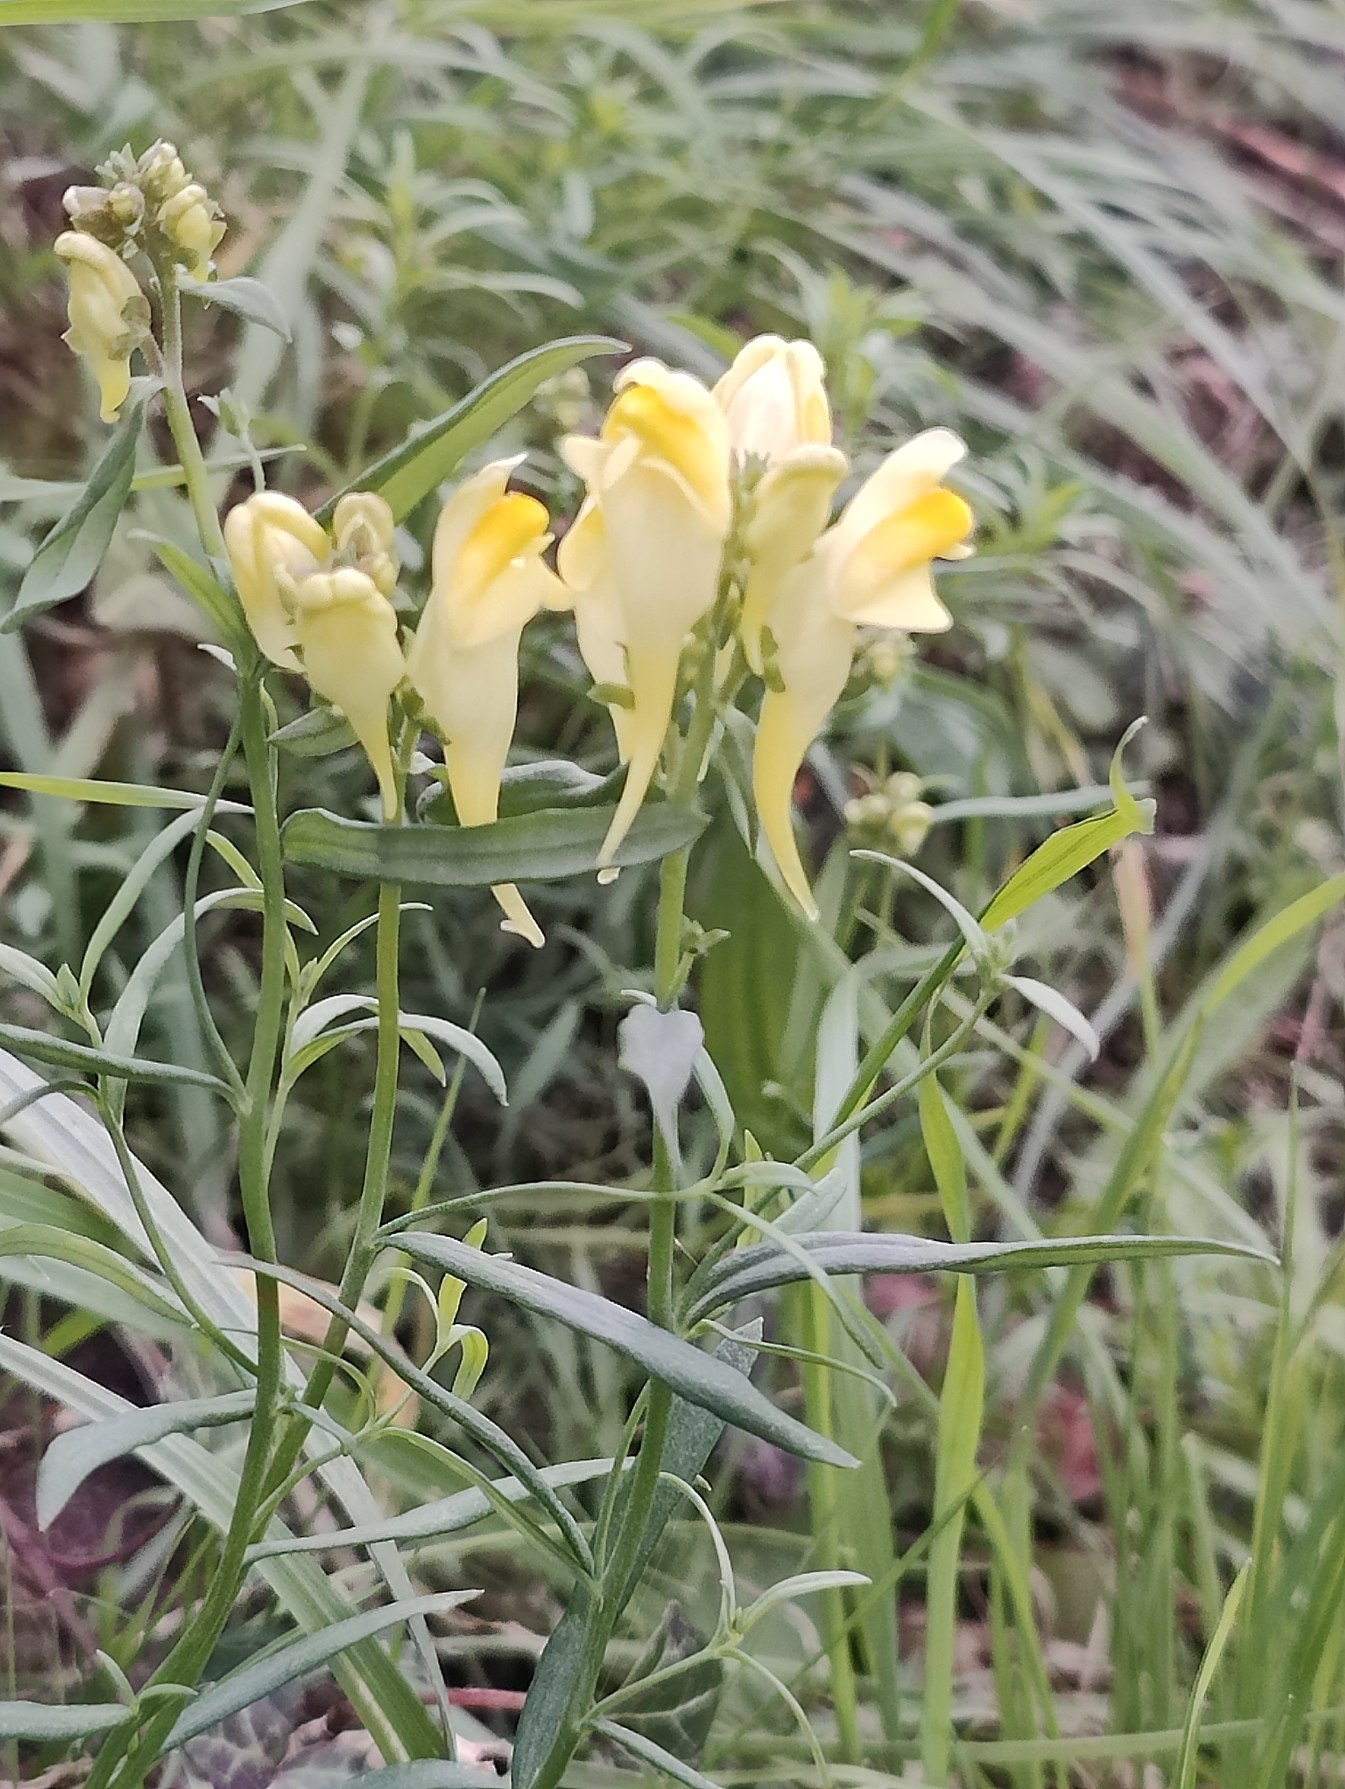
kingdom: Plantae
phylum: Tracheophyta
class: Magnoliopsida
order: Lamiales
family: Plantaginaceae
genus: Linaria
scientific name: Linaria vulgaris
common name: Almindelig torskemund
